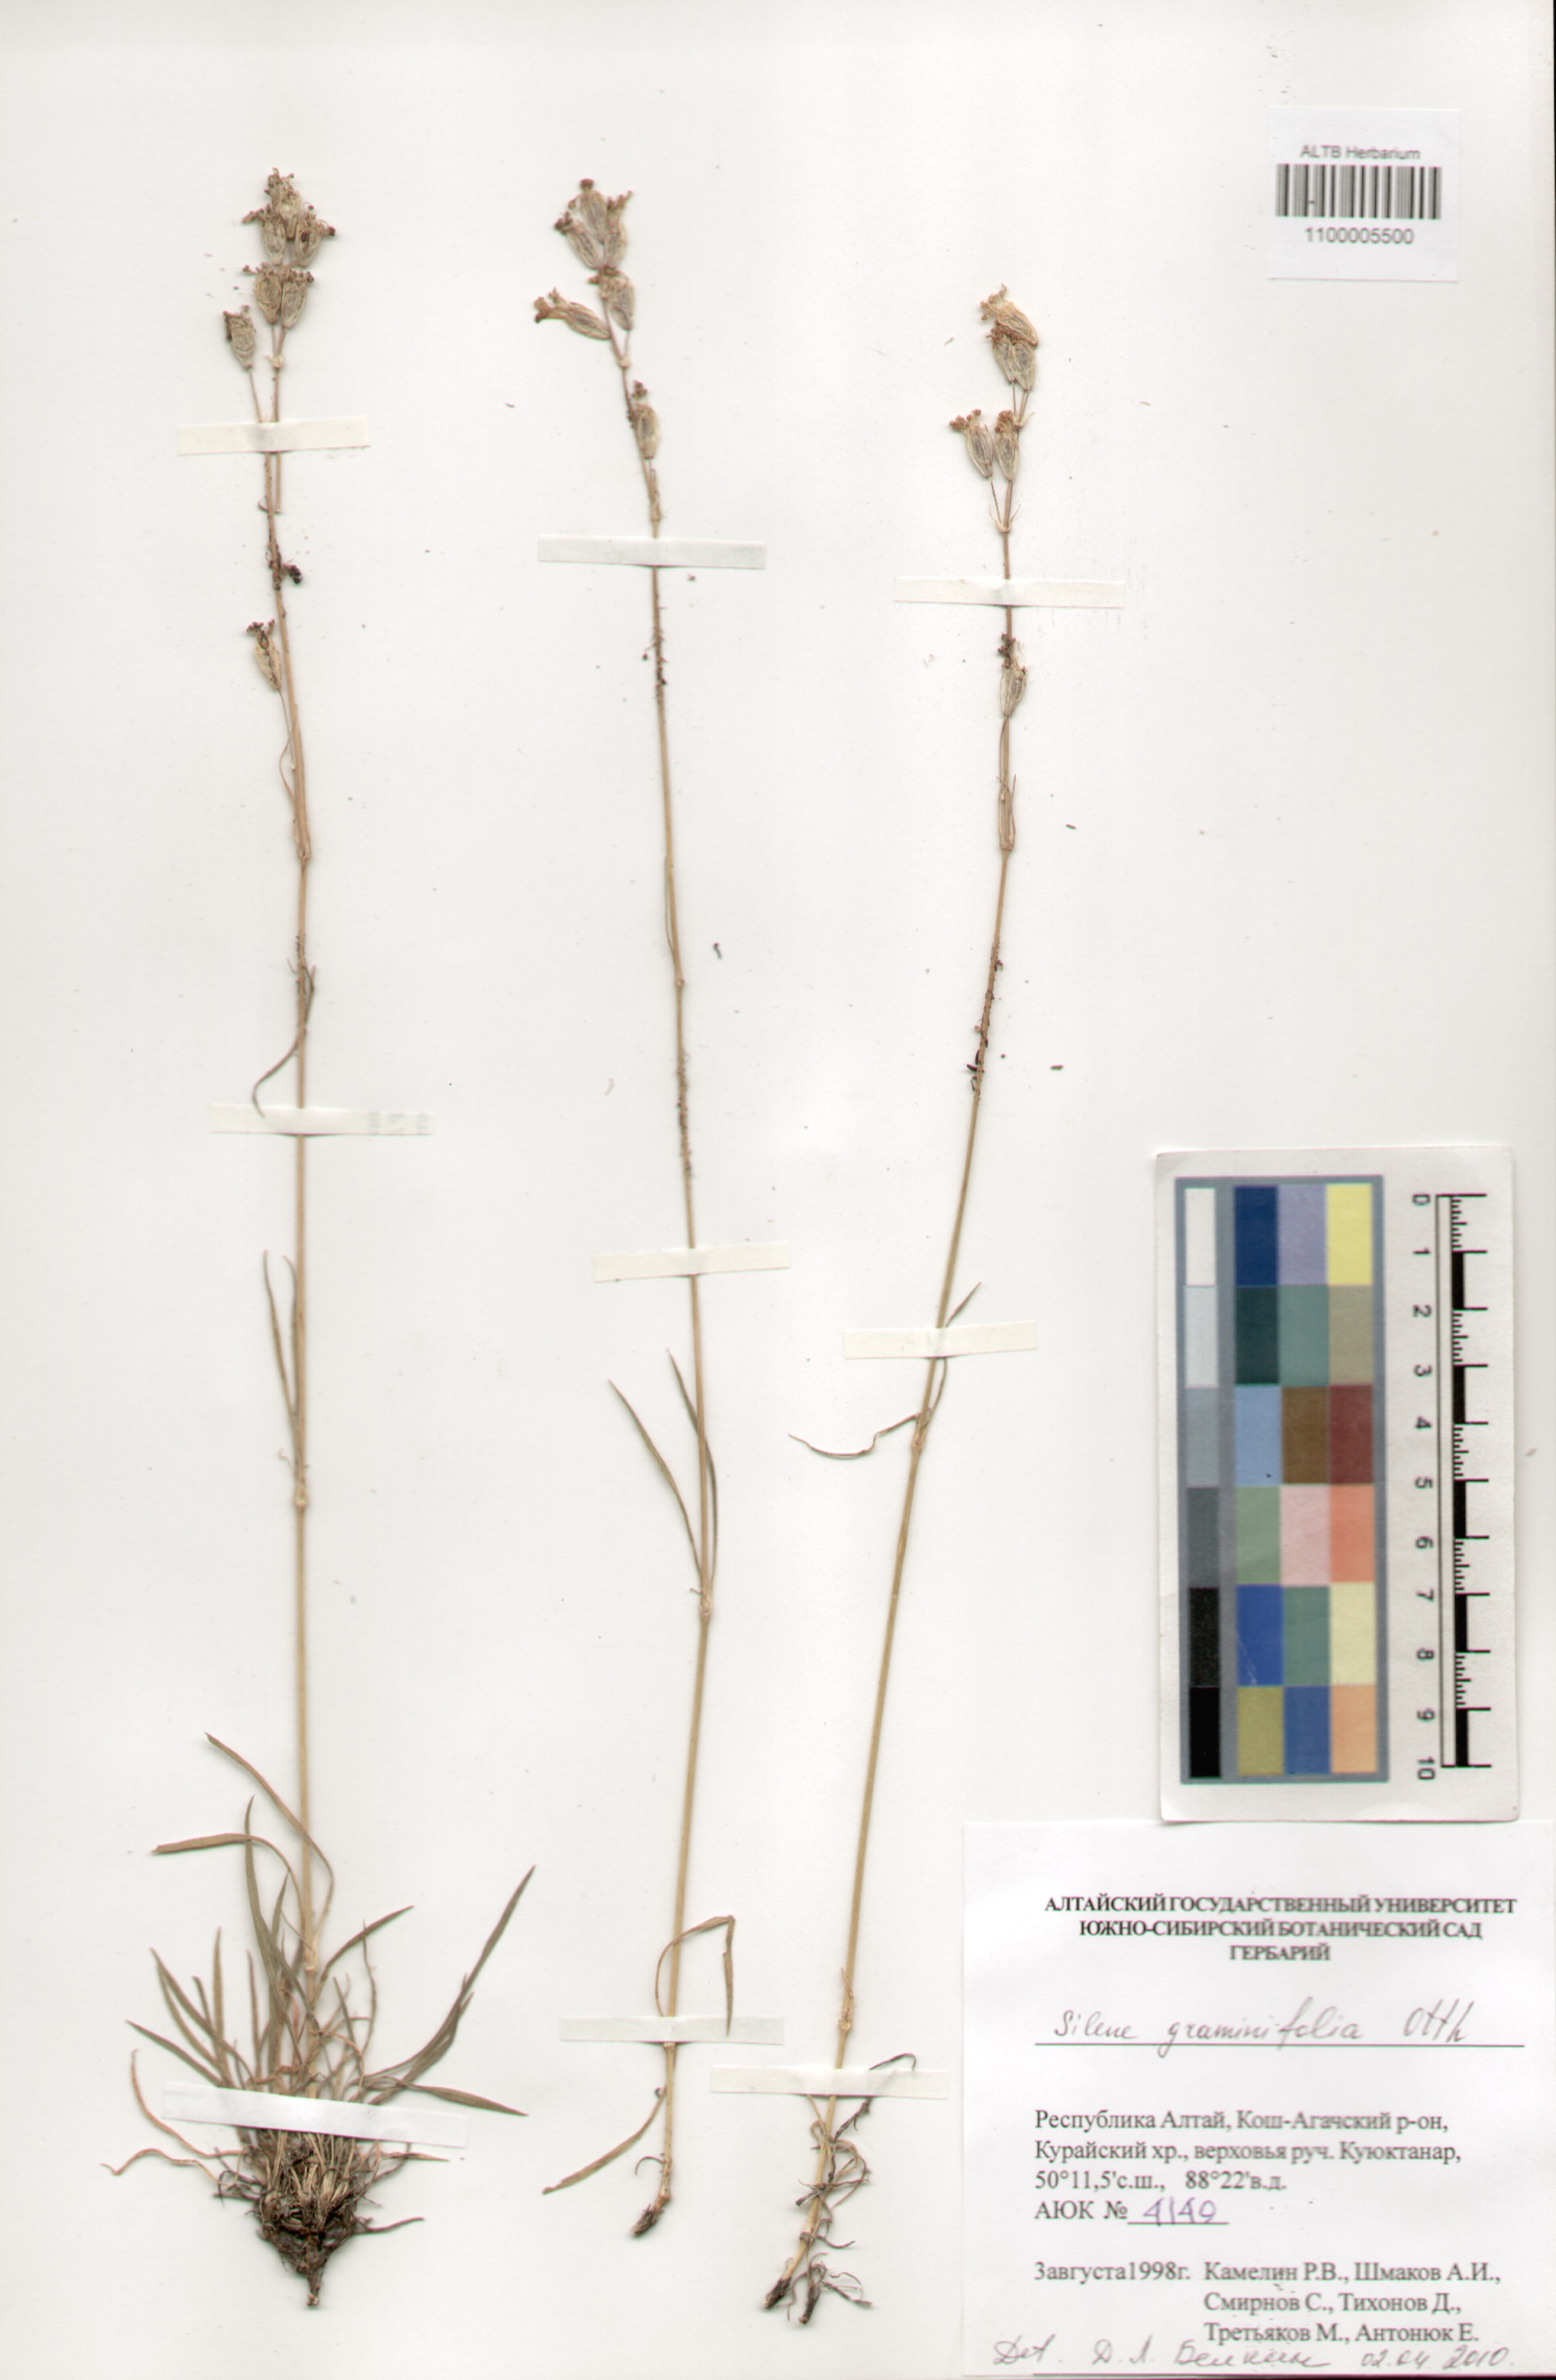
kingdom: Plantae
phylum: Tracheophyta
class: Magnoliopsida
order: Caryophyllales
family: Caryophyllaceae
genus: Silene
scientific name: Silene graminifolia
